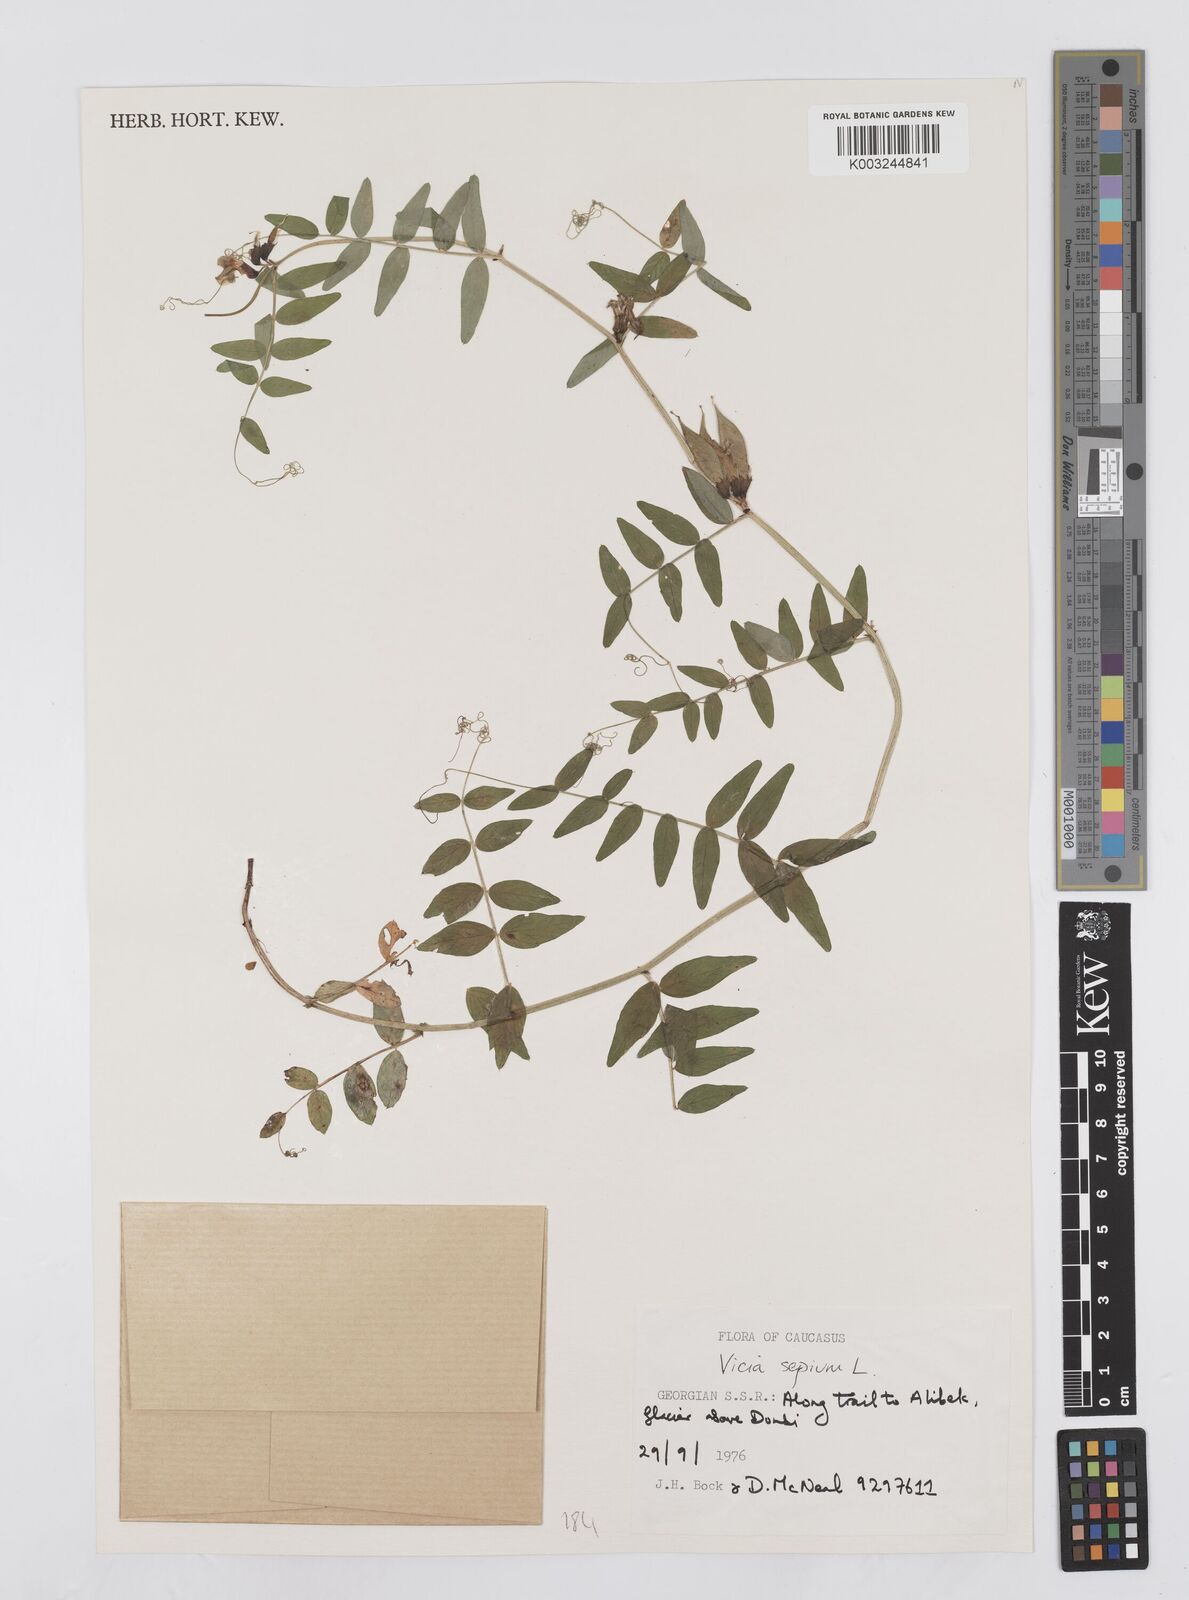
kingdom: Plantae
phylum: Tracheophyta
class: Magnoliopsida
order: Fabales
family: Fabaceae
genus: Vicia
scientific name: Vicia sepium
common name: Bush vetch
